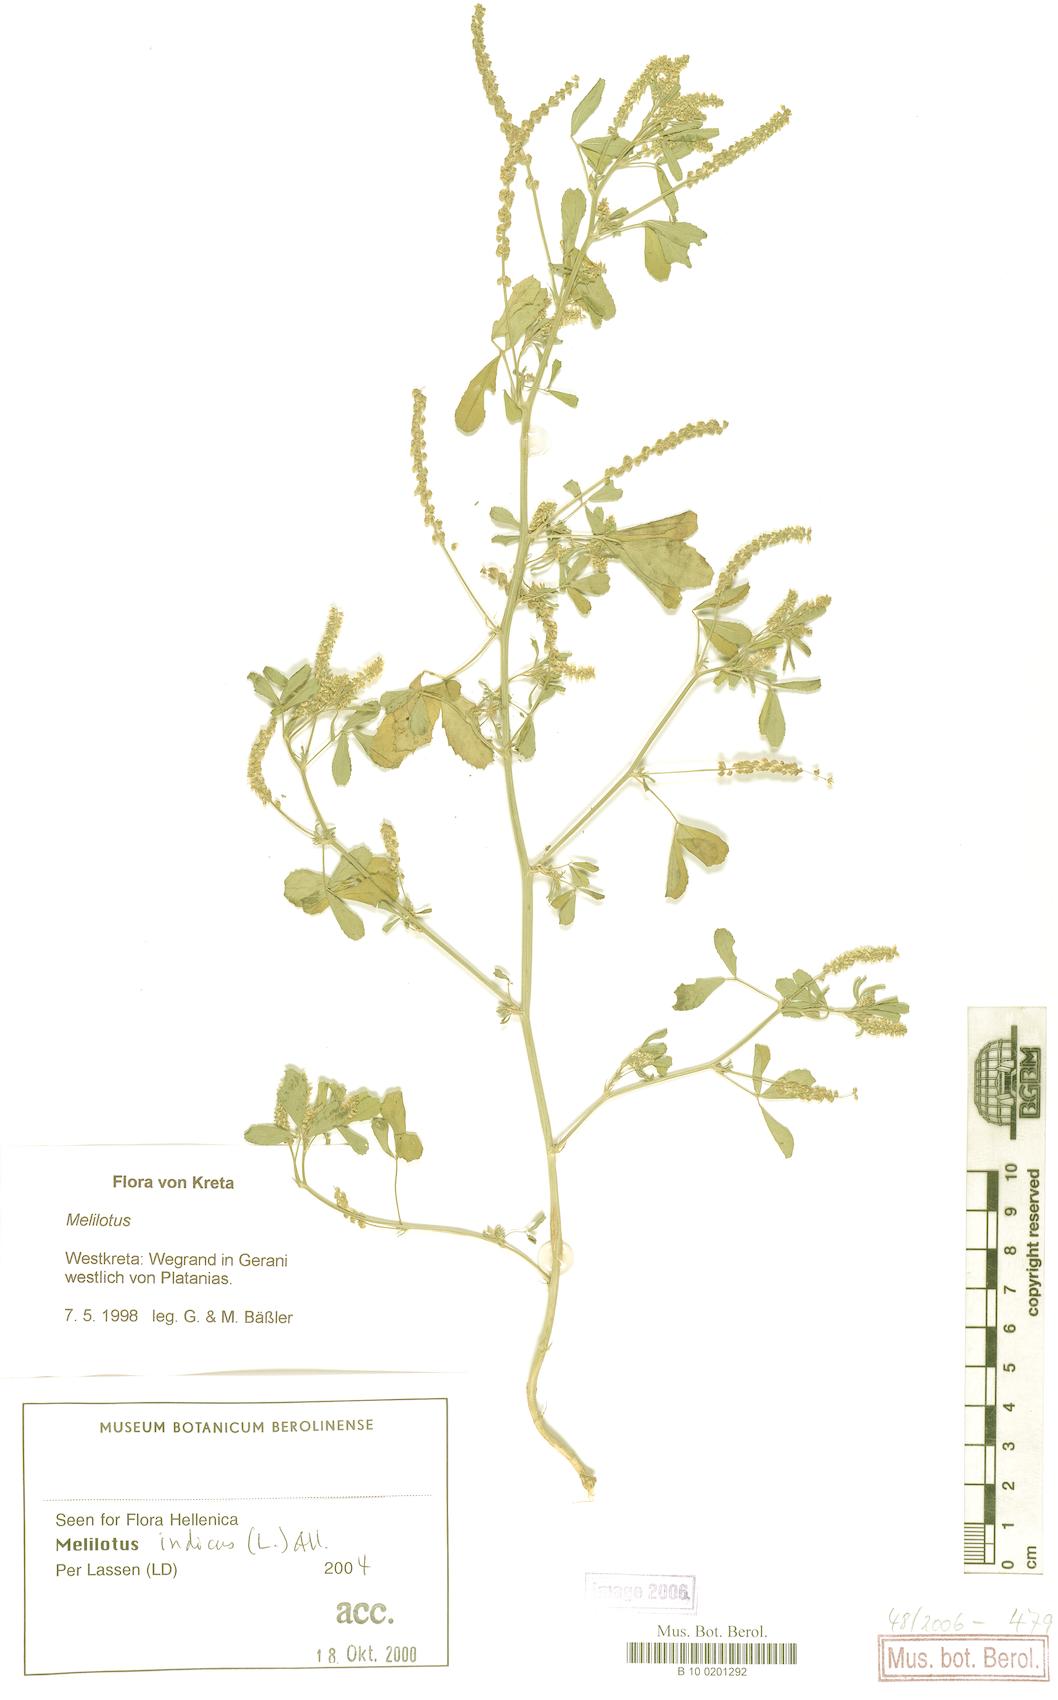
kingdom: Plantae
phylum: Tracheophyta
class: Magnoliopsida
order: Fabales
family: Fabaceae
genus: Melilotus
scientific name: Melilotus indicus
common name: Small melilot
